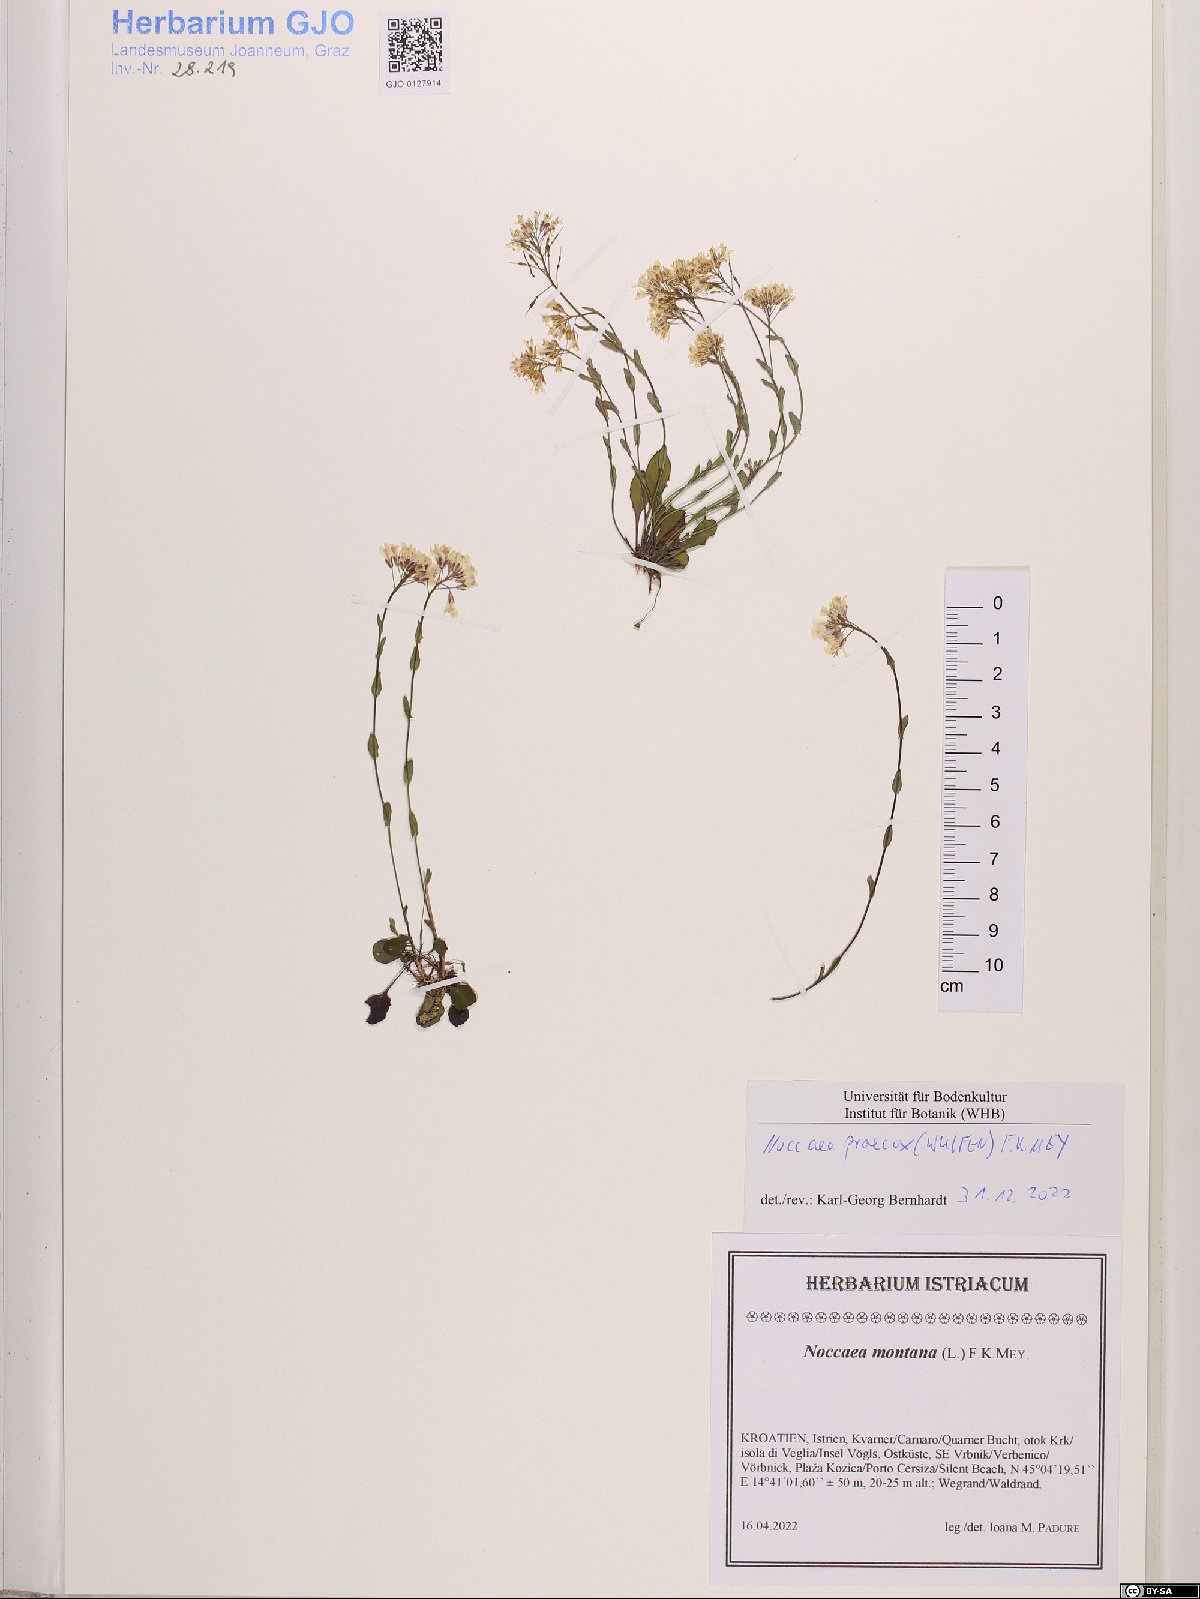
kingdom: Plantae
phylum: Tracheophyta
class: Magnoliopsida
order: Brassicales
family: Brassicaceae
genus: Noccaea
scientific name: Noccaea praecox
